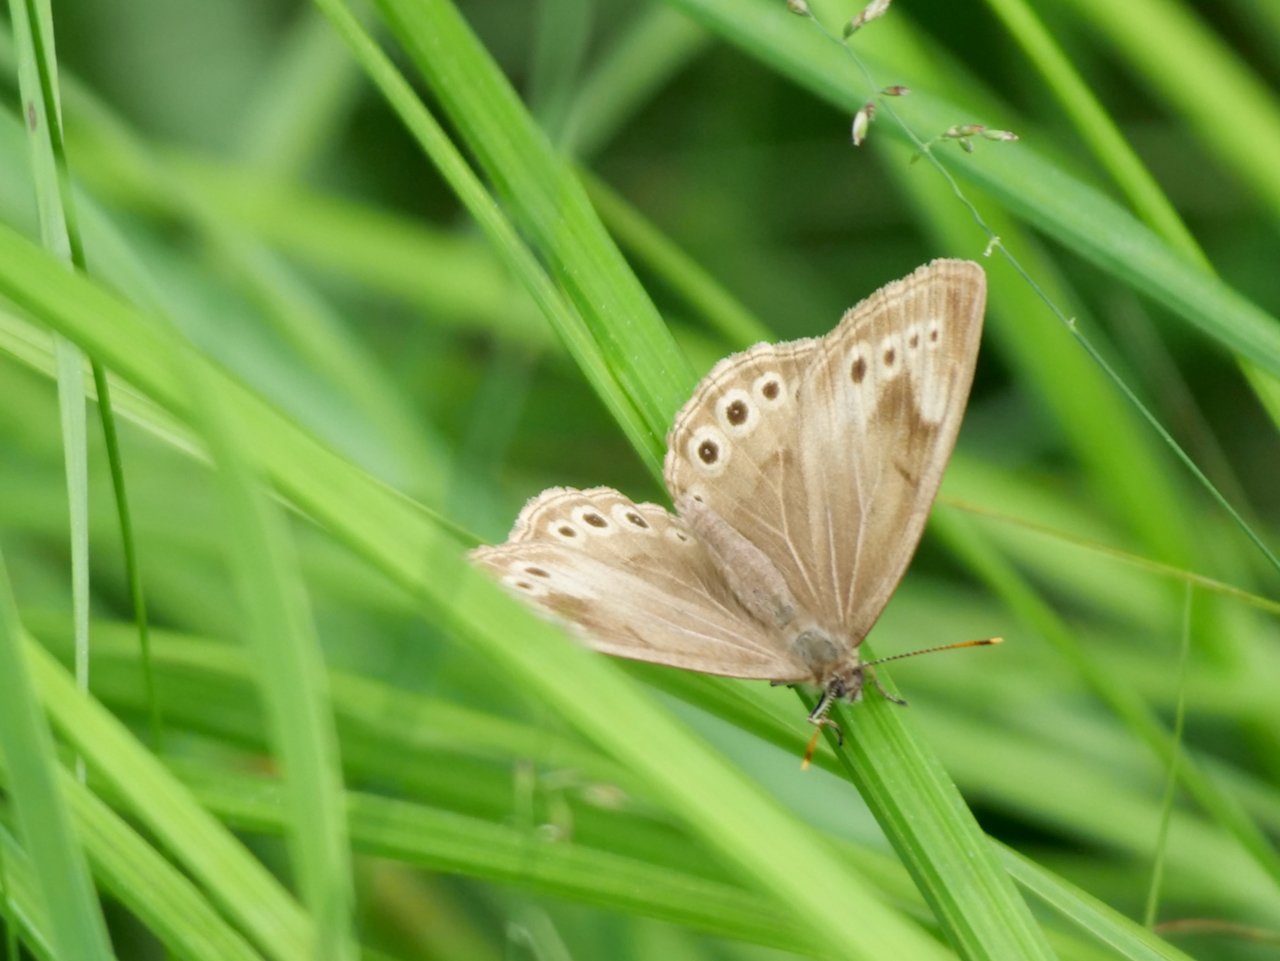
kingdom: Animalia
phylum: Arthropoda
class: Insecta
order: Lepidoptera
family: Nymphalidae
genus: Lethe
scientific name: Lethe
